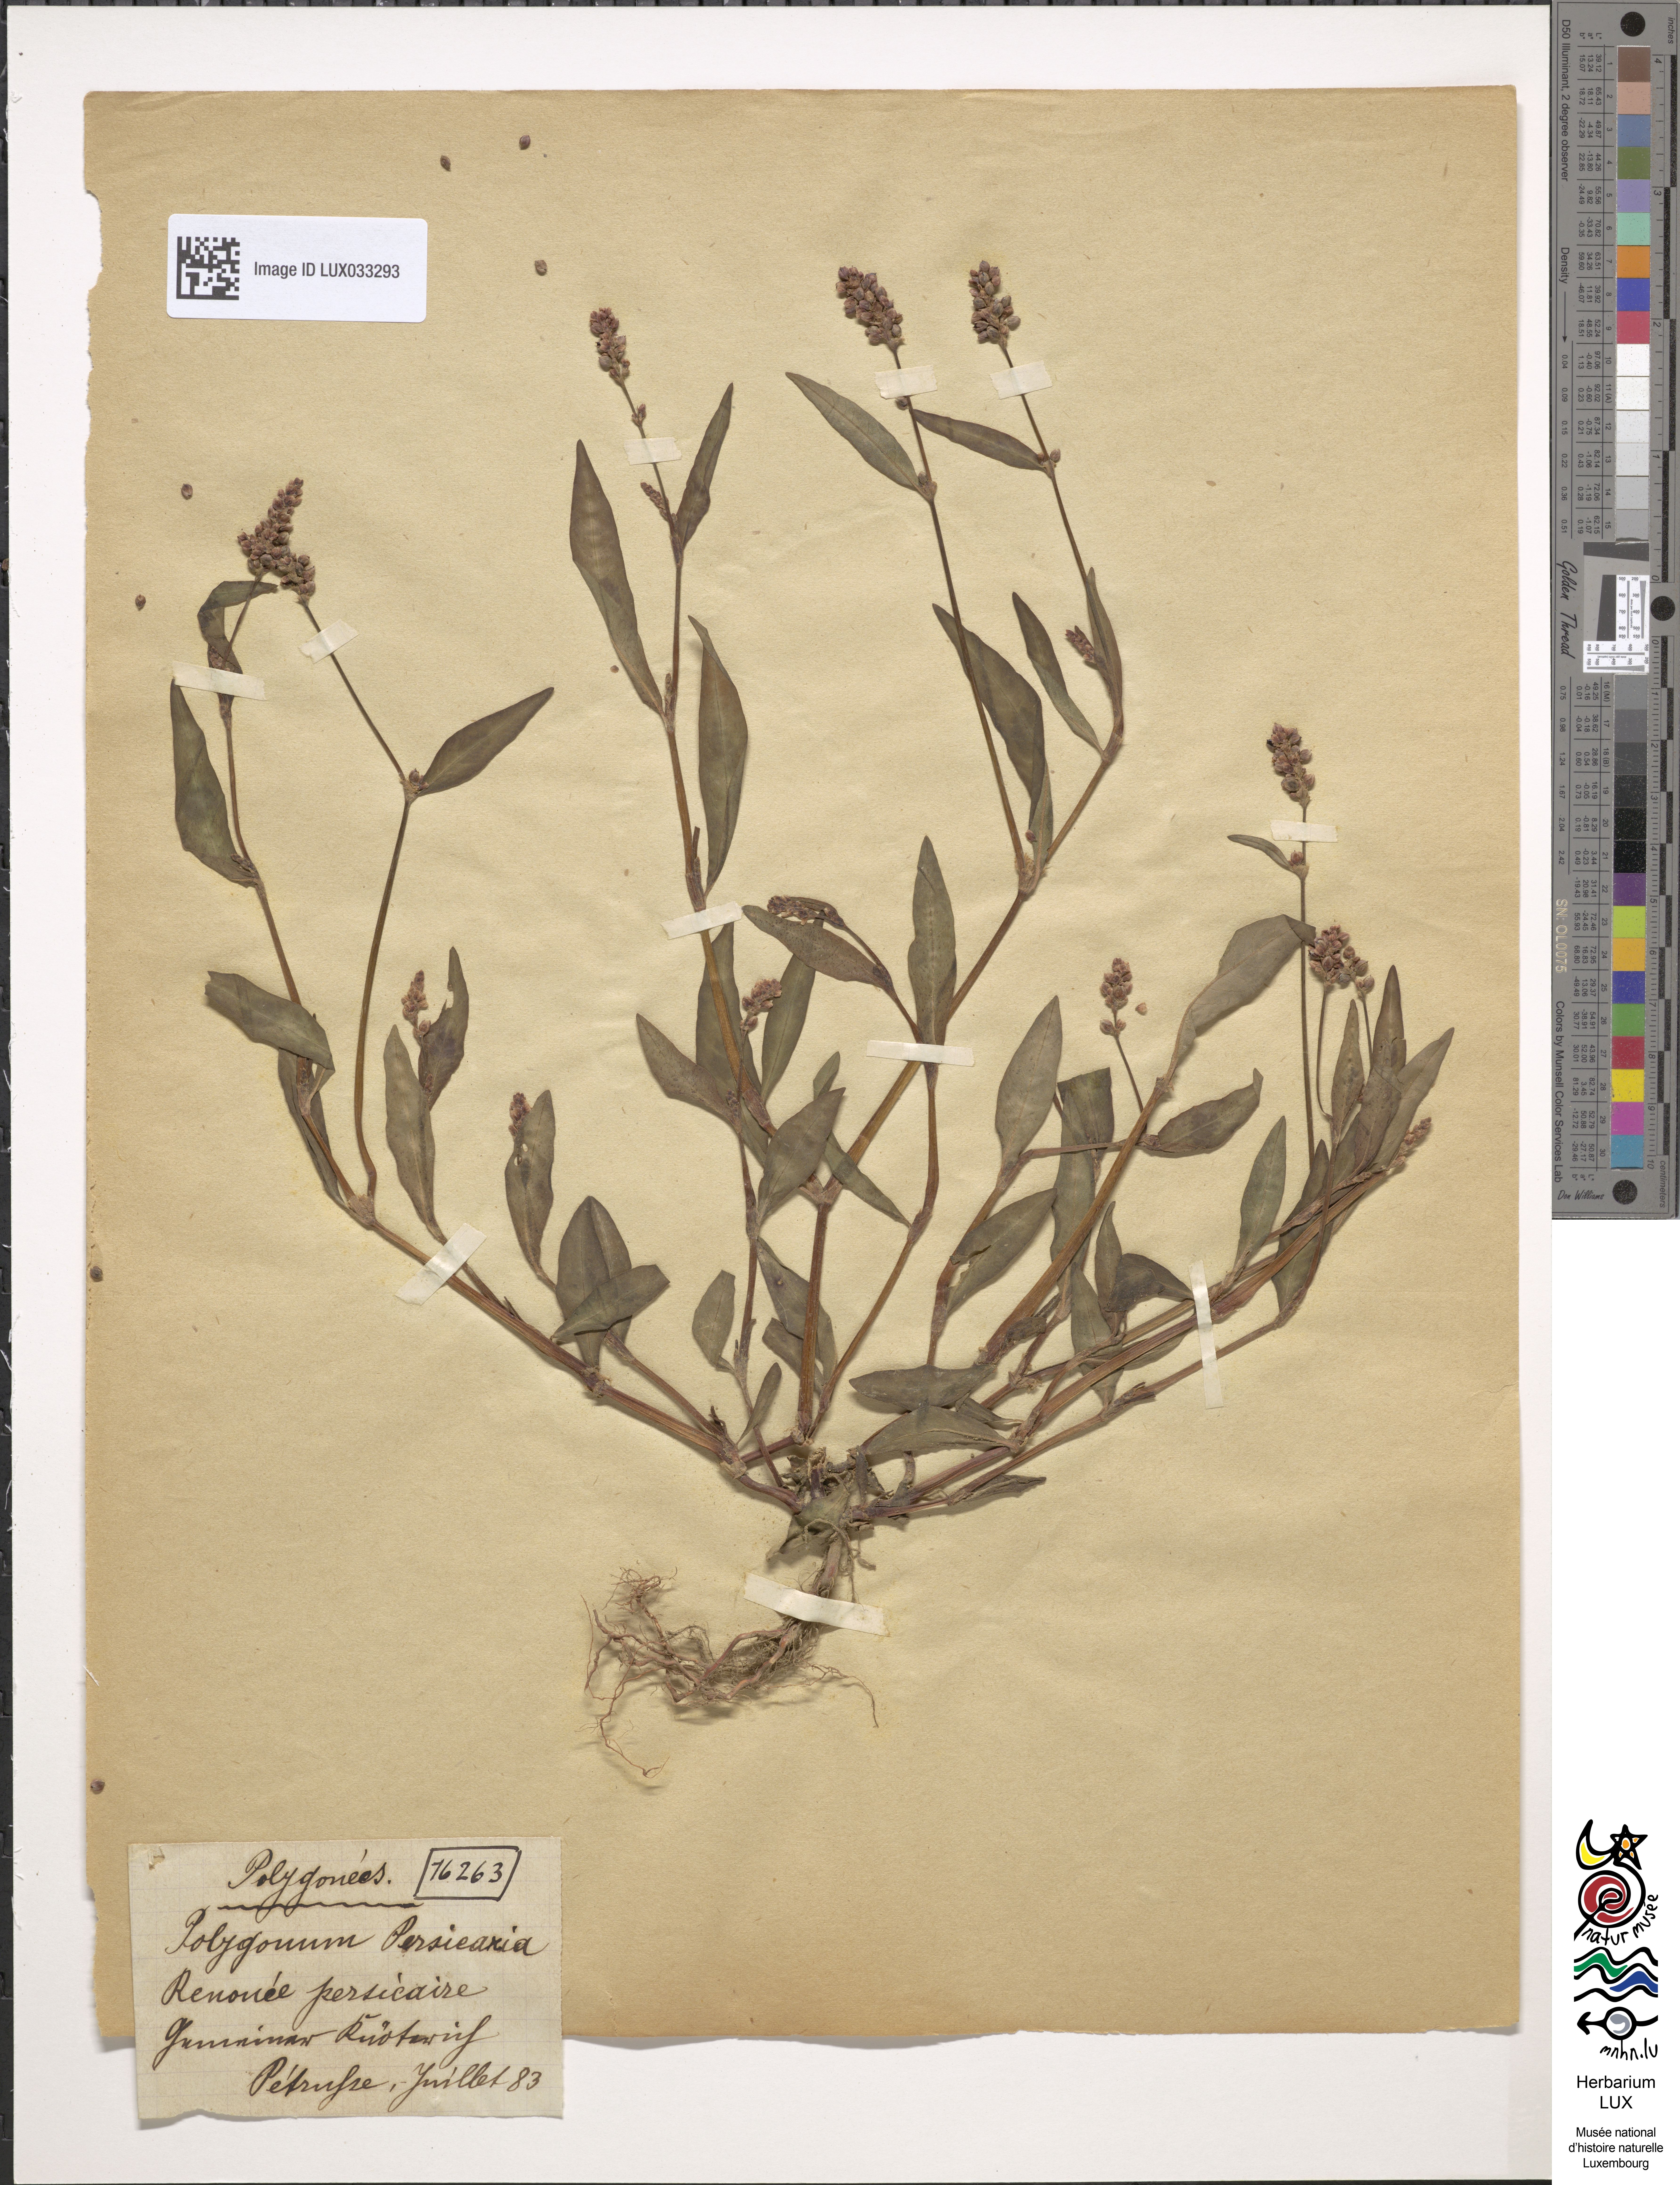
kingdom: Plantae
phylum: Tracheophyta
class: Magnoliopsida
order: Caryophyllales
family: Polygonaceae
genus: Persicaria
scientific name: Persicaria maculosa
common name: Redshank
